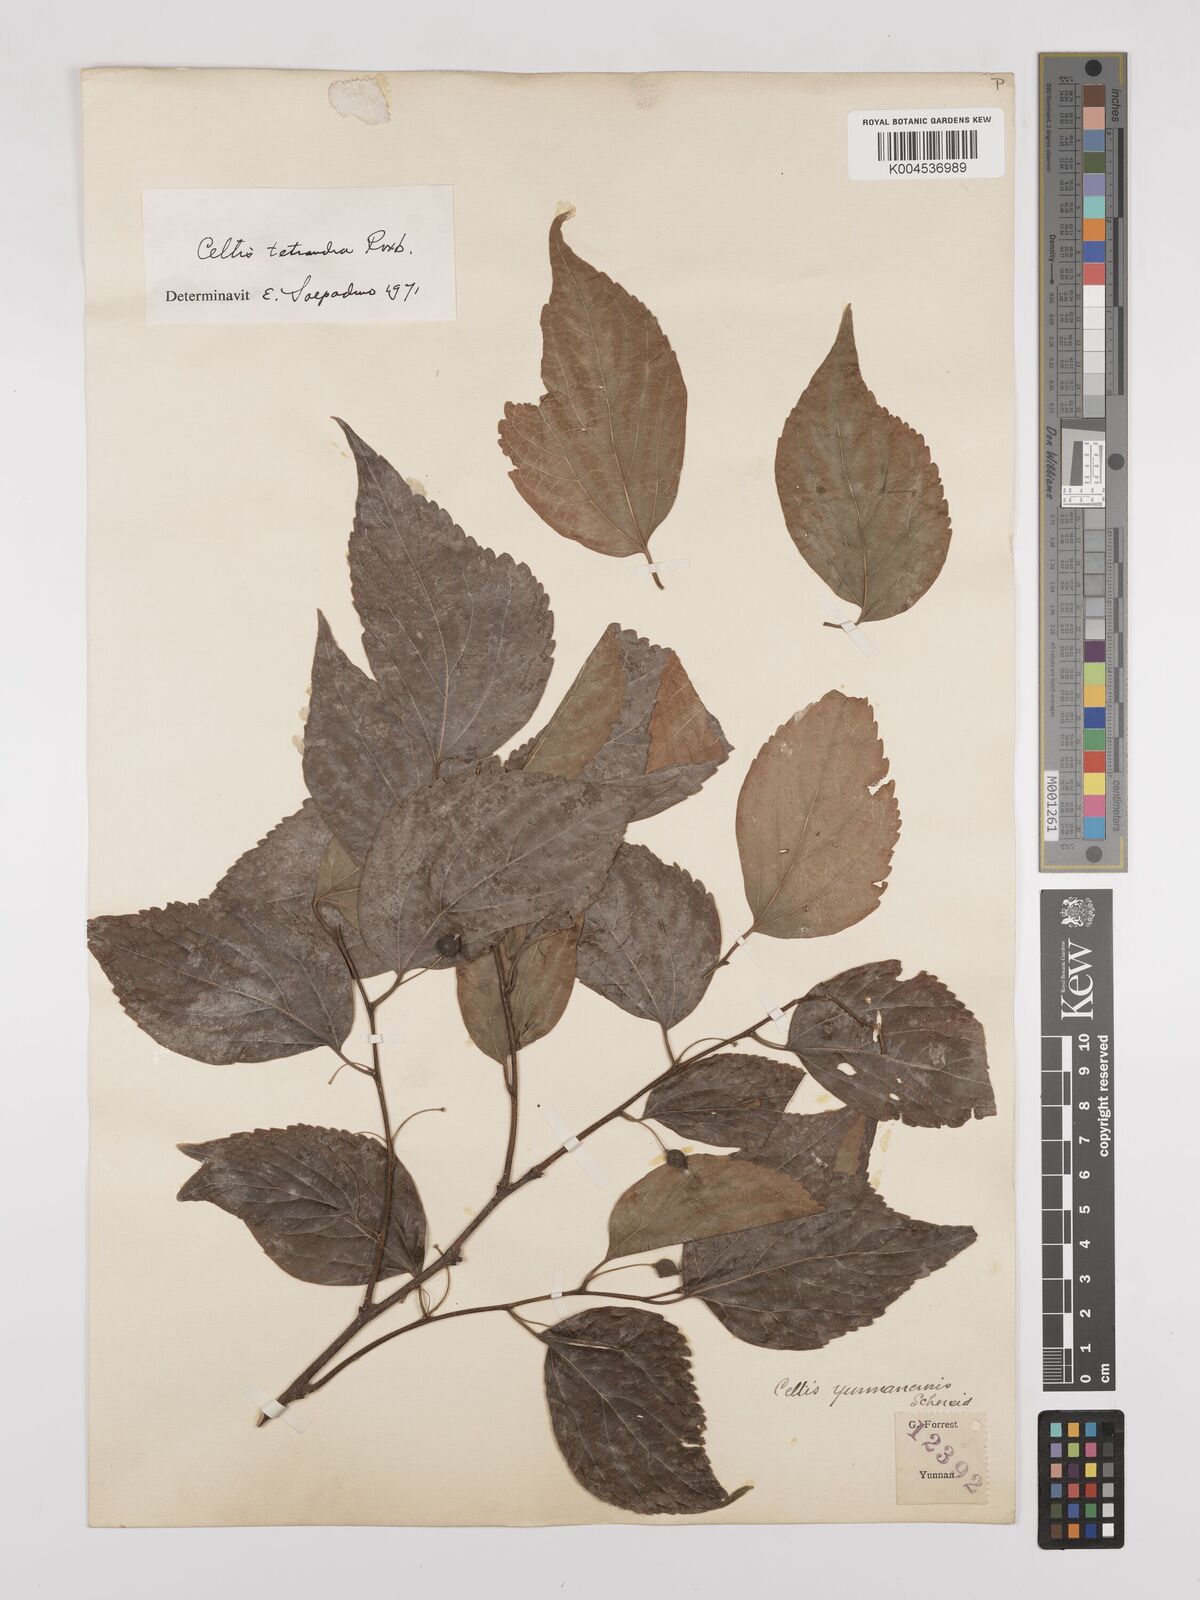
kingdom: Plantae
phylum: Tracheophyta
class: Magnoliopsida
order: Rosales
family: Cannabaceae
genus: Celtis
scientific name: Celtis tetrandra
